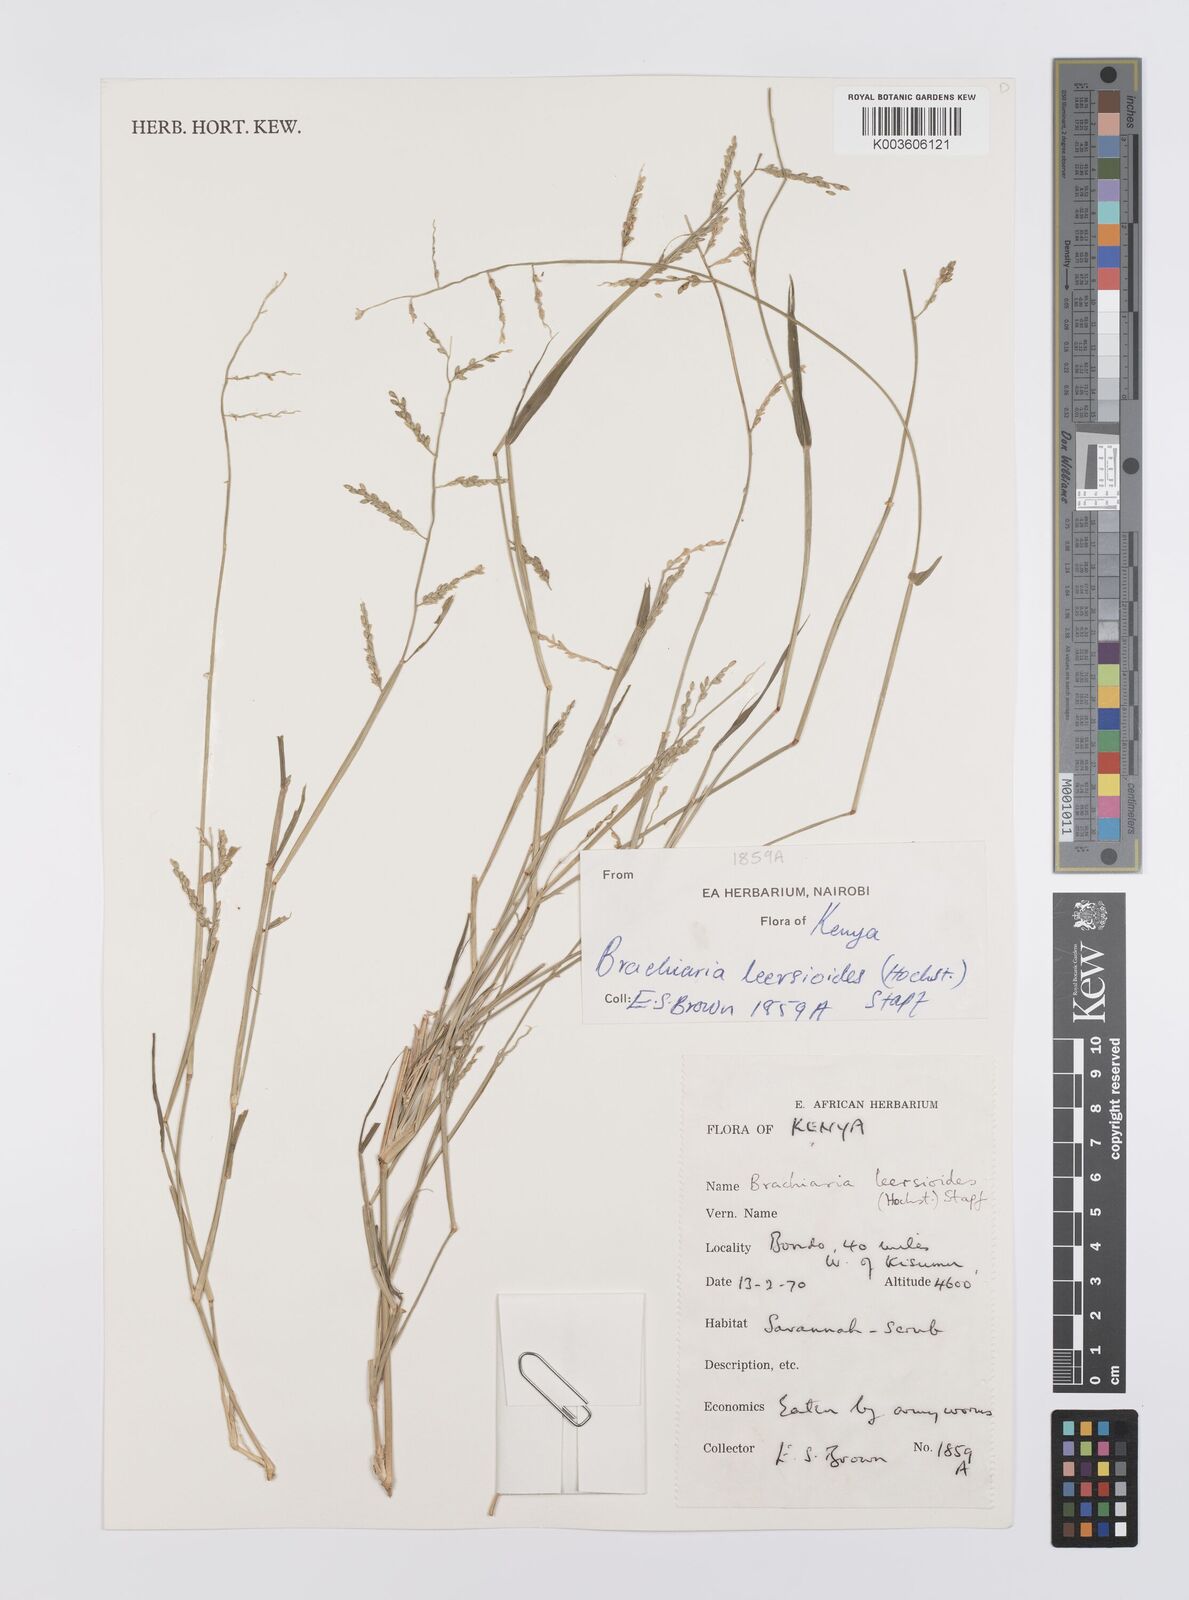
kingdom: Plantae
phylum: Tracheophyta
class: Liliopsida
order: Poales
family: Poaceae
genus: Urochloa
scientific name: Urochloa leersioides
